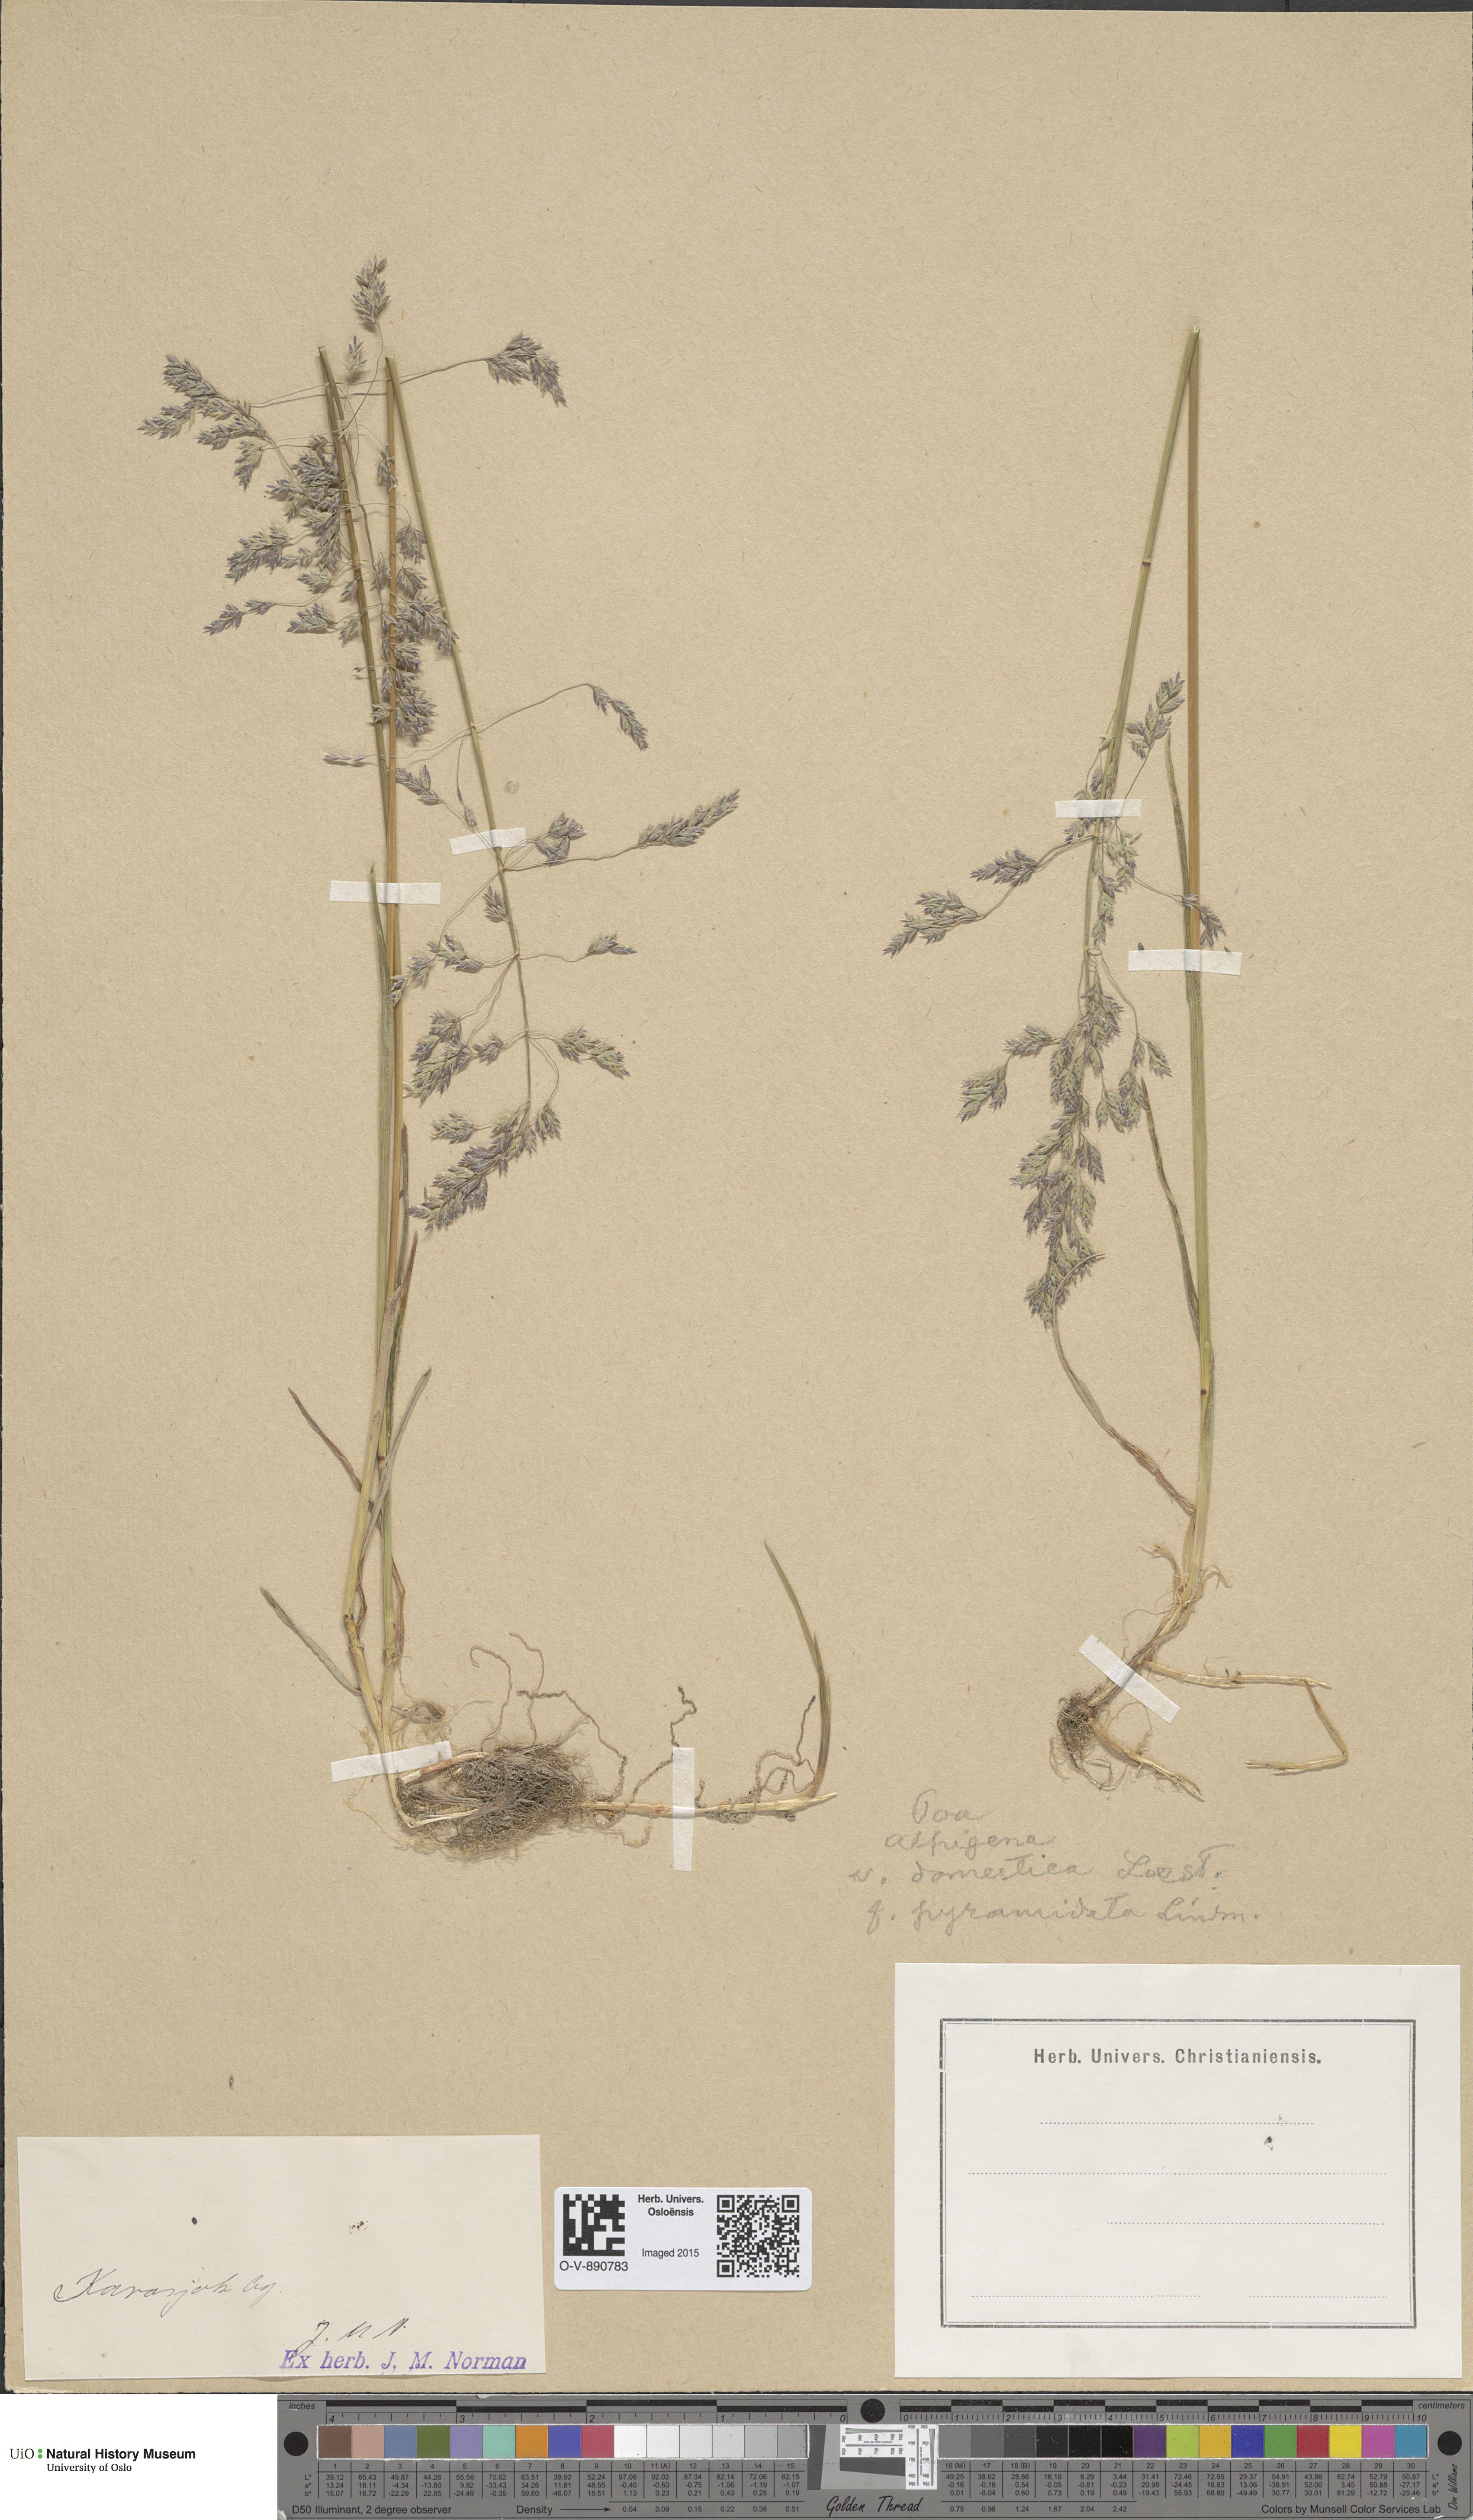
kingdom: Plantae
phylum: Tracheophyta
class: Liliopsida
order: Poales
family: Poaceae
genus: Poa
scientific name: Poa pratensis
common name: Kentucky bluegrass
